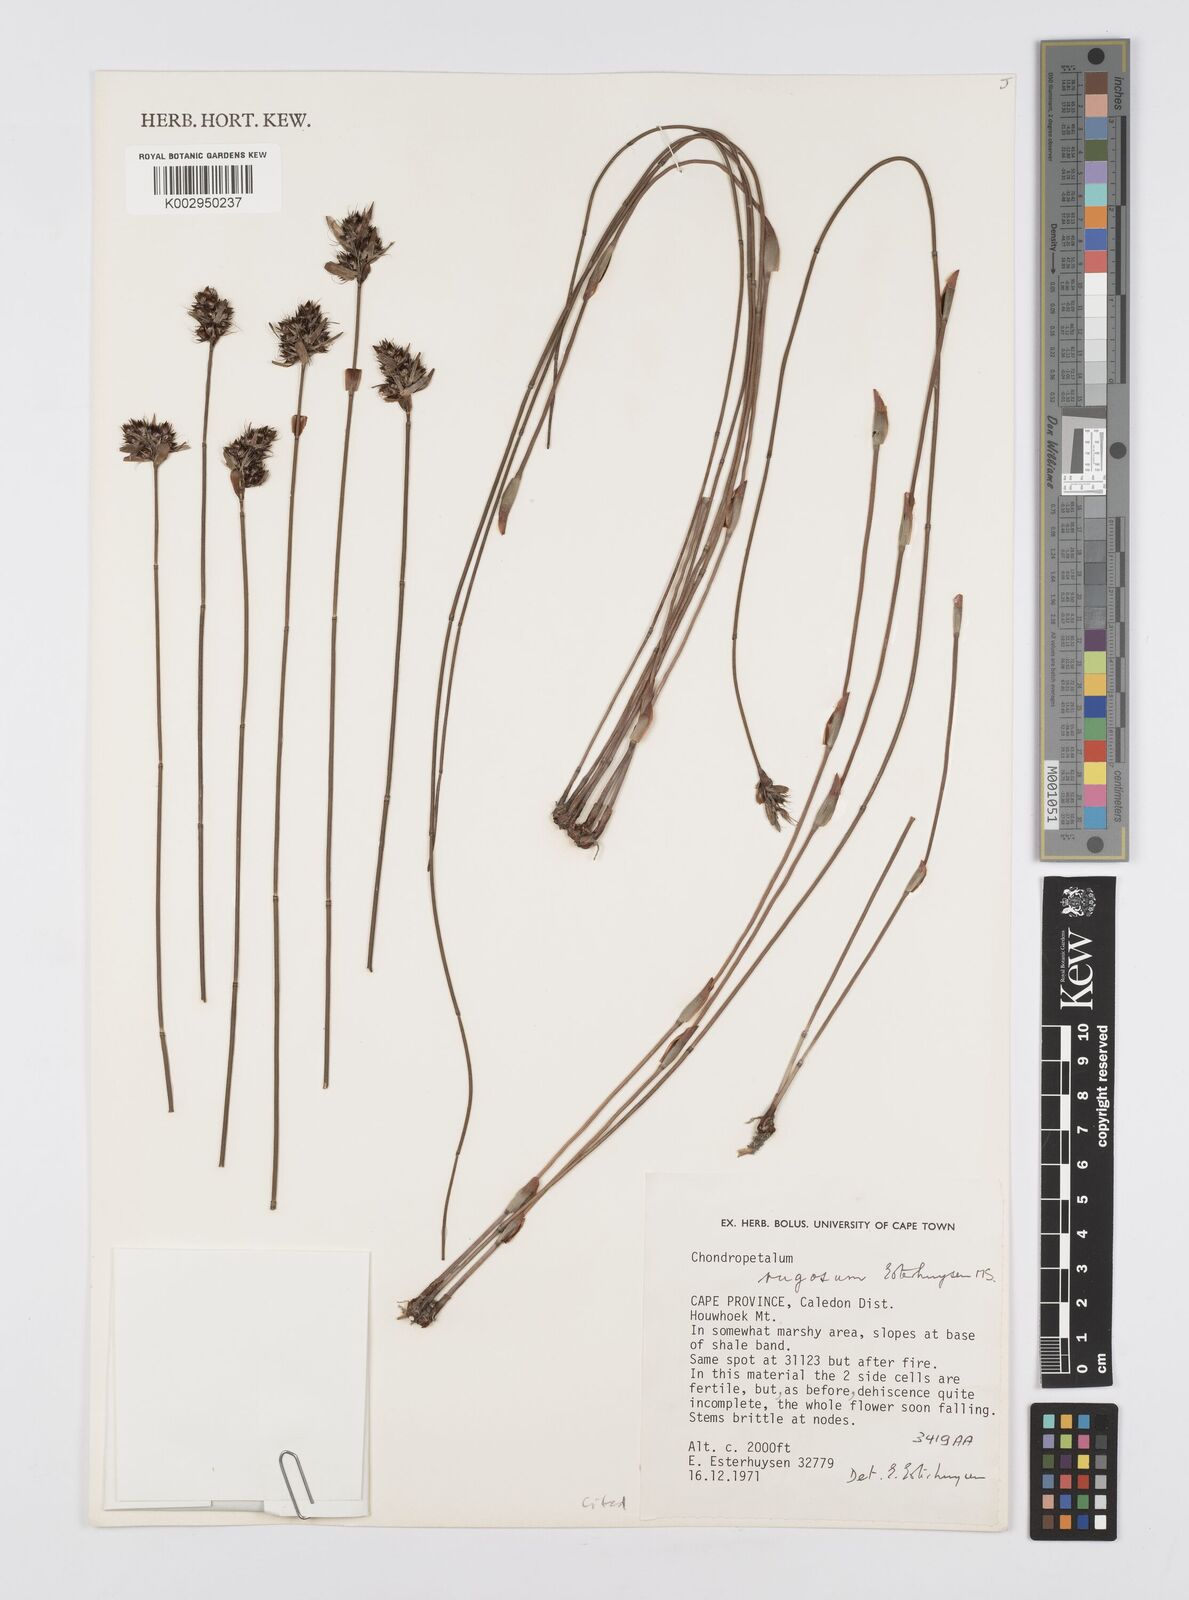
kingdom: Plantae
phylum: Tracheophyta
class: Liliopsida
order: Poales
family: Restionaceae
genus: Askidiosperma
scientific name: Askidiosperma rugosum
